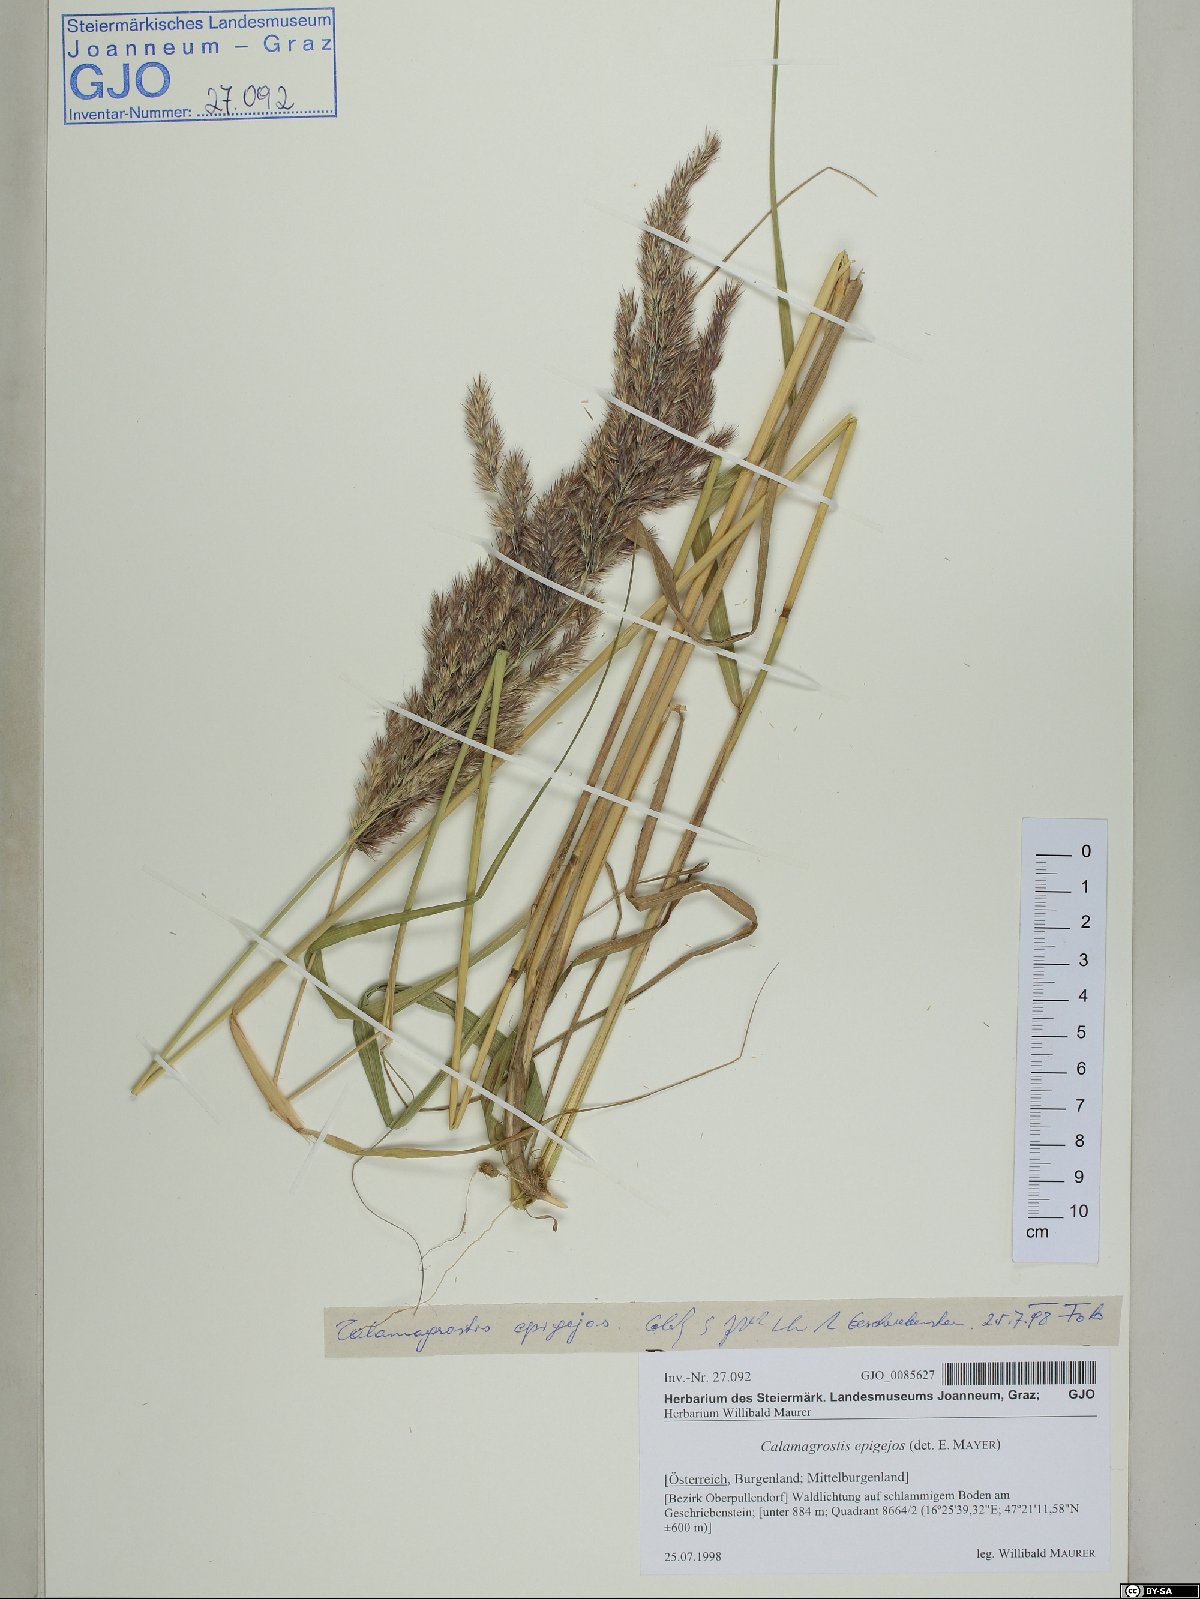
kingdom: Plantae
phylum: Tracheophyta
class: Liliopsida
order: Poales
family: Poaceae
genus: Calamagrostis
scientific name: Calamagrostis epigejos
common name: Wood small-reed
